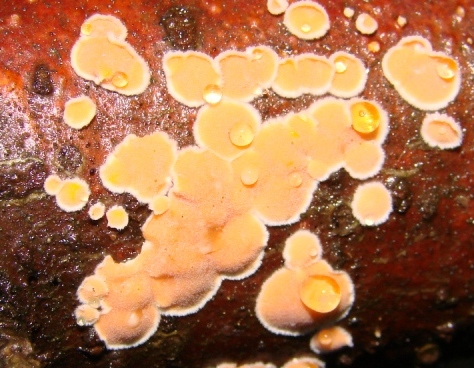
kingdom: Fungi
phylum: Basidiomycota
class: Agaricomycetes
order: Russulales
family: Stereaceae
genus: Aleurodiscus
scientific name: Aleurodiscus amorphus
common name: orange skiveskorpe
